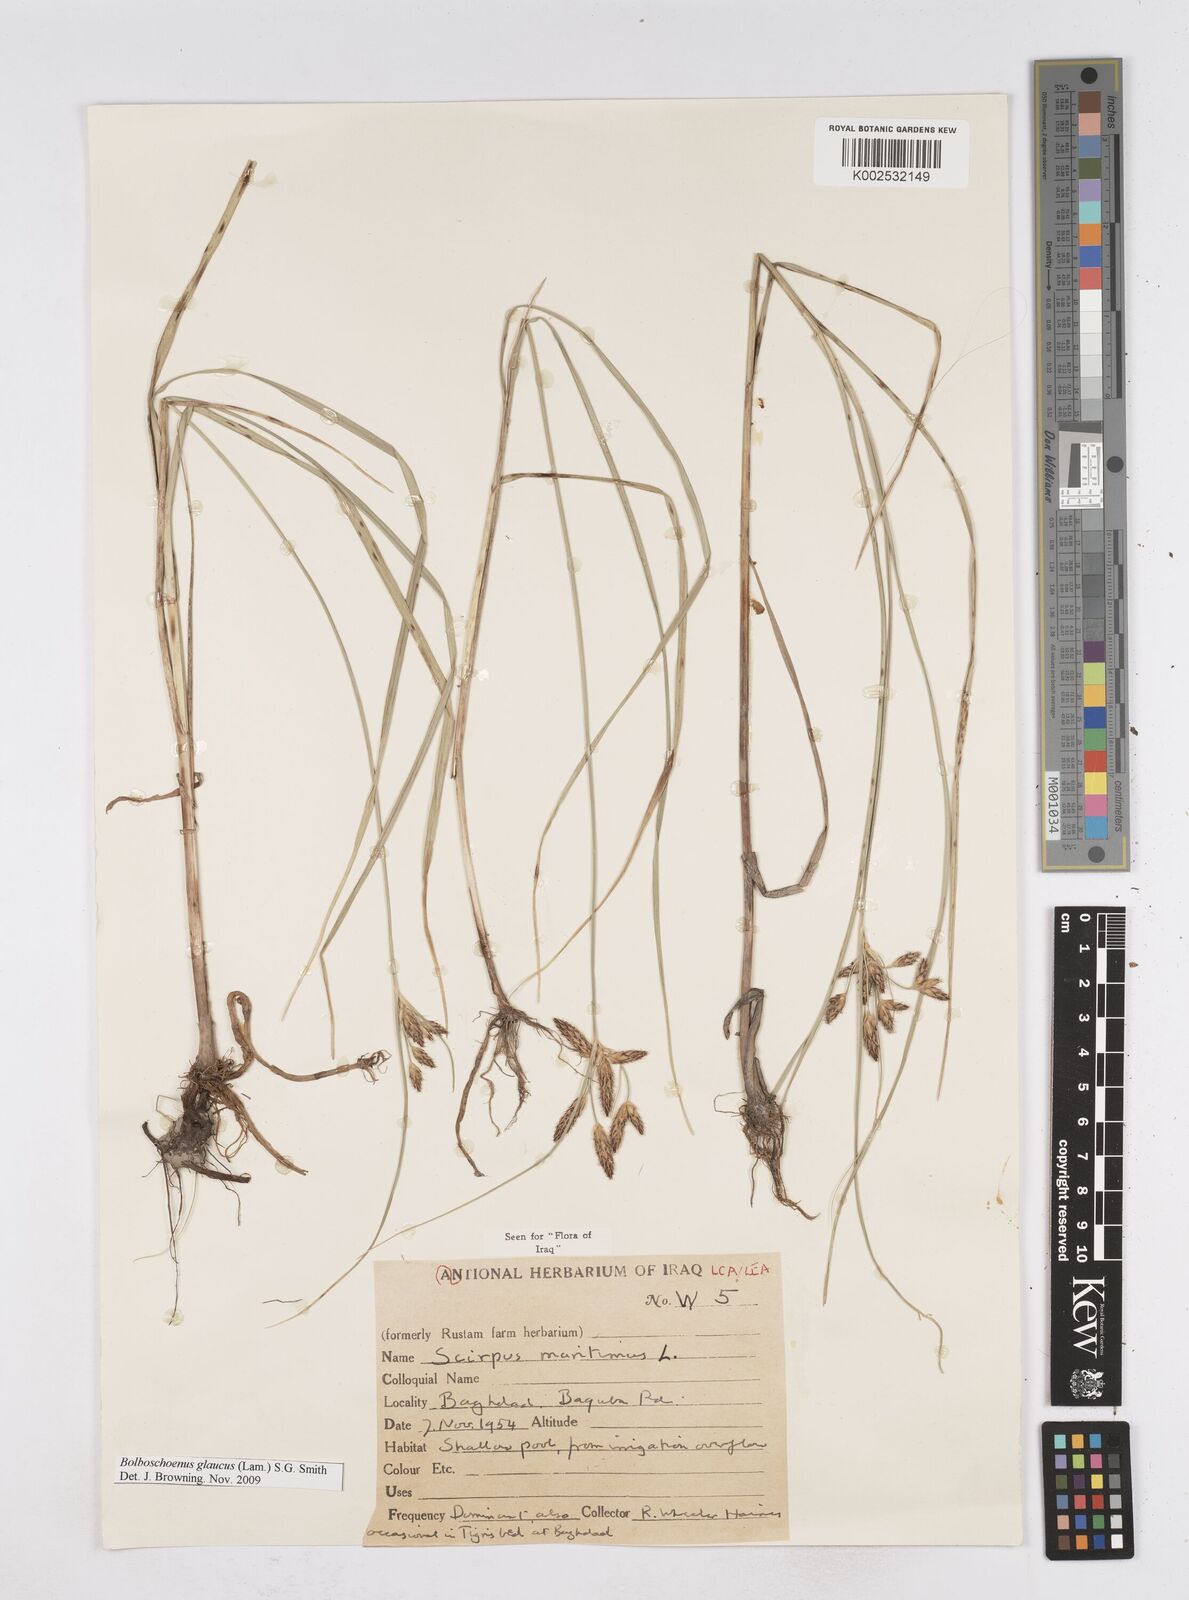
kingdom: Plantae
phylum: Tracheophyta
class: Liliopsida
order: Poales
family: Cyperaceae
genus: Bolboschoenus
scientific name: Bolboschoenus maritimus
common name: Sea club-rush
